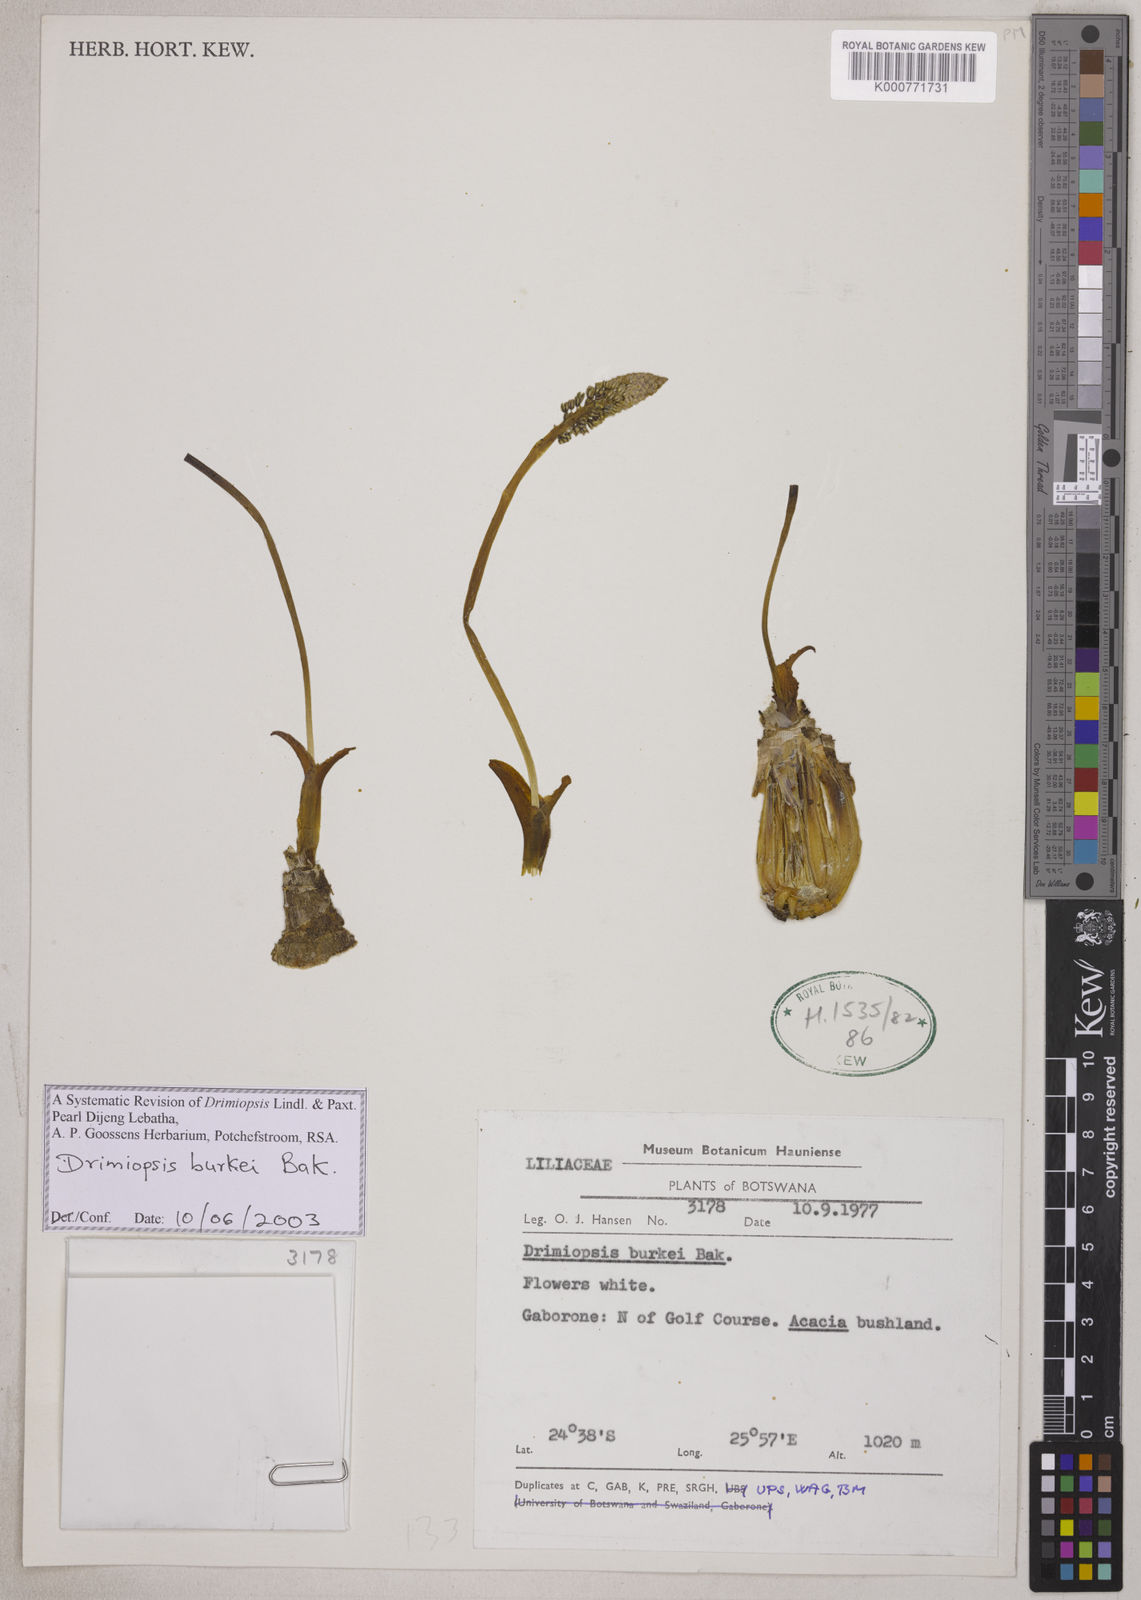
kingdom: Plantae
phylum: Tracheophyta
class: Liliopsida
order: Asparagales
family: Asparagaceae
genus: Drimiopsis
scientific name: Drimiopsis burkei
